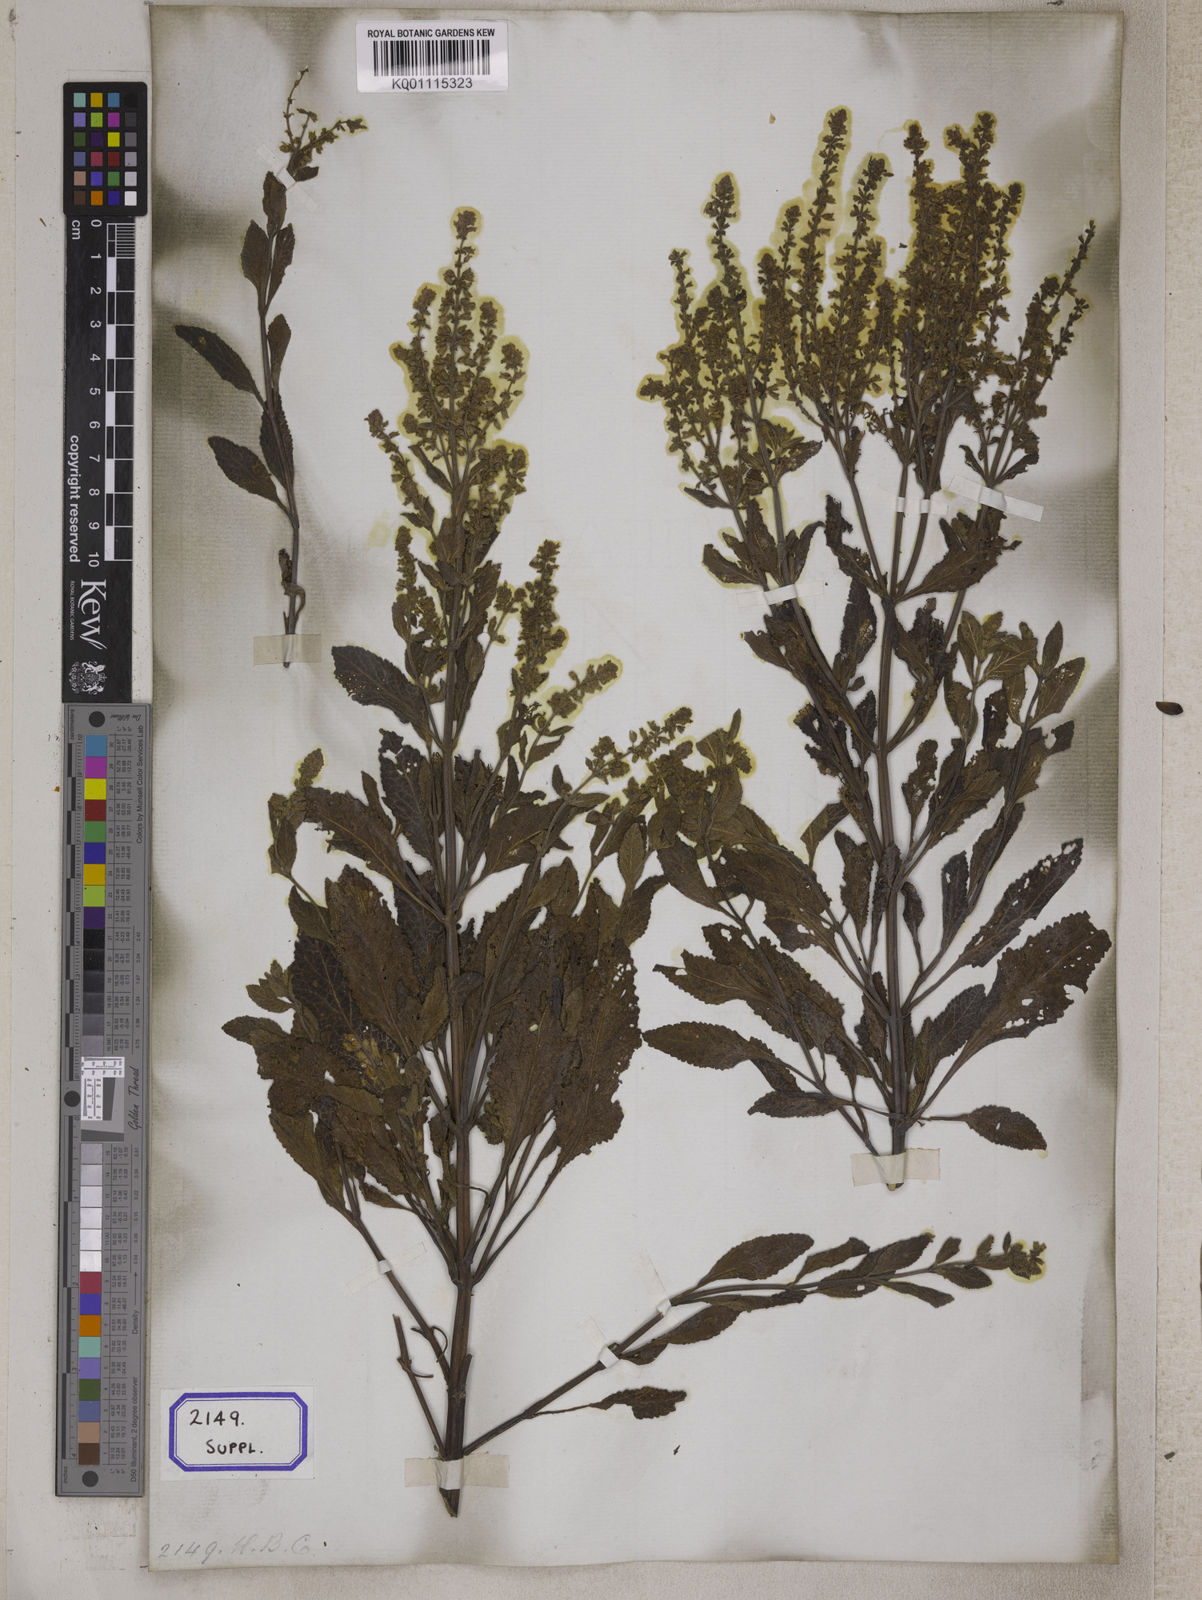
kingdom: Plantae
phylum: Tracheophyta
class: Magnoliopsida
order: Lamiales
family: Lamiaceae
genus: Salvia
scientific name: Salvia plebeia
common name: Australian sage
